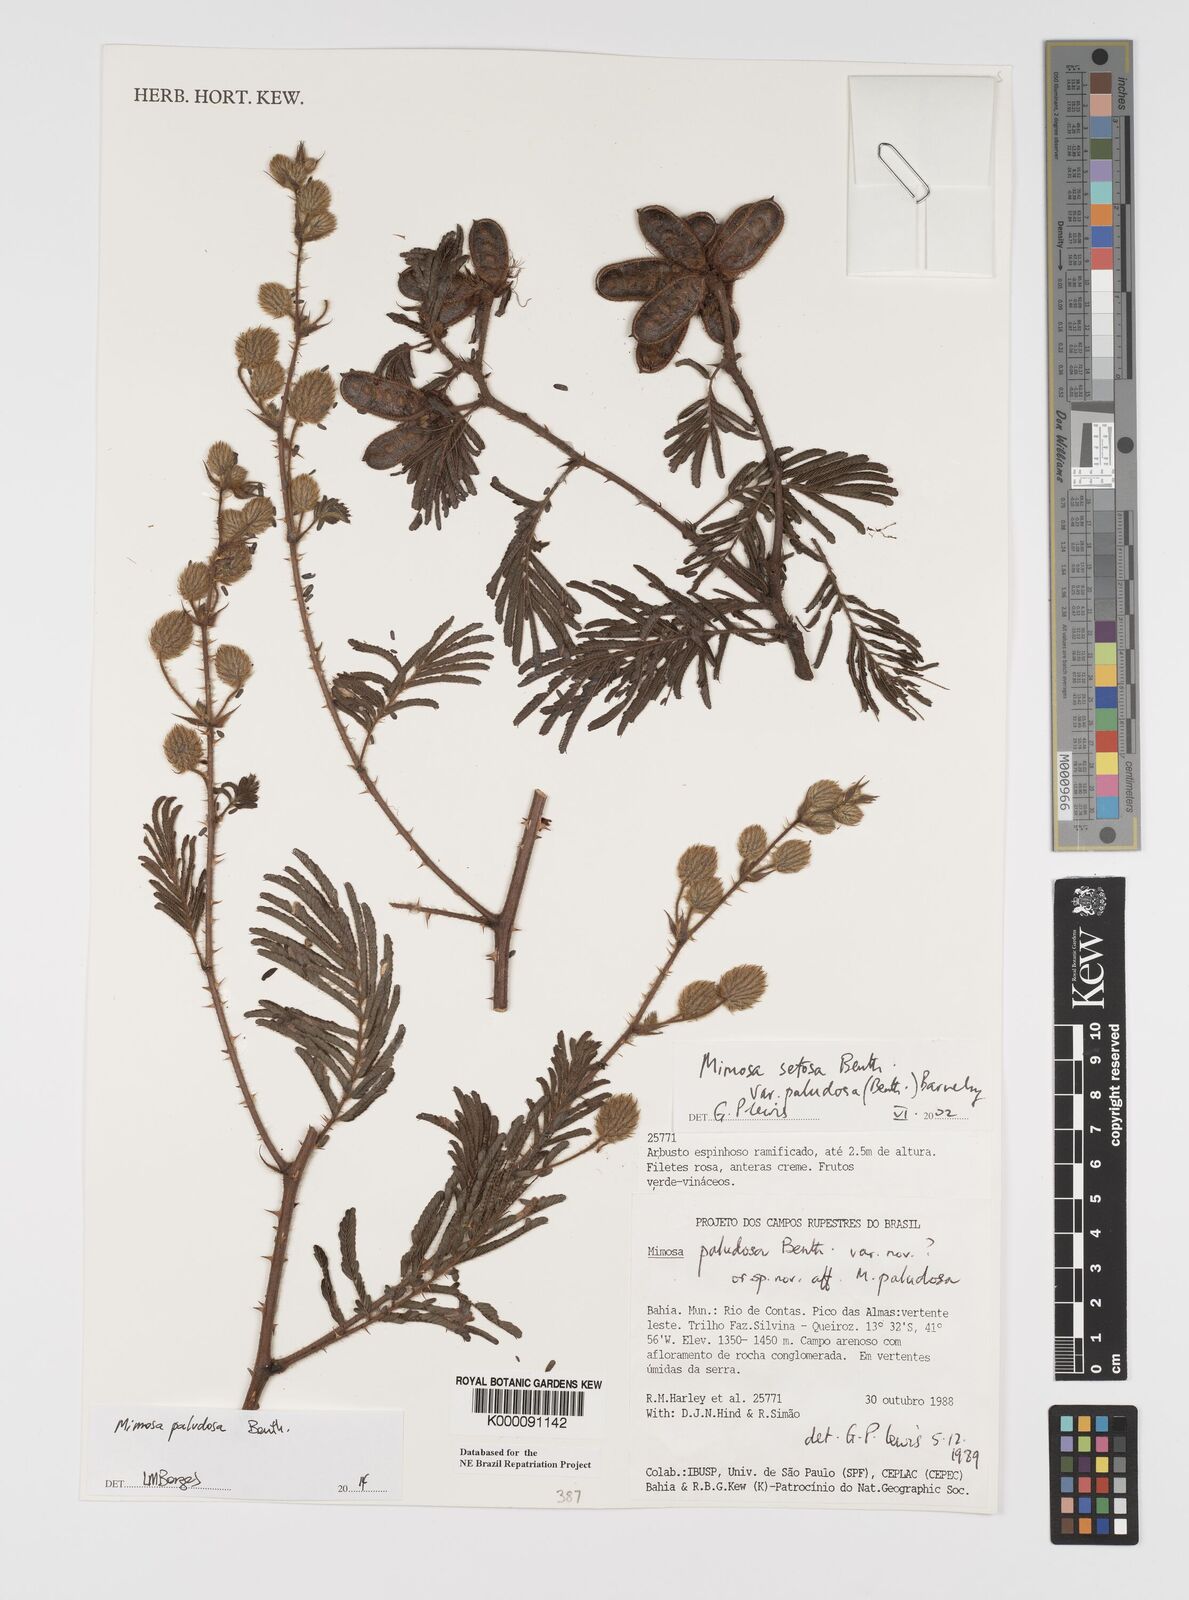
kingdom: Plantae
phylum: Tracheophyta
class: Magnoliopsida
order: Fabales
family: Fabaceae
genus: Mimosa
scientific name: Mimosa paludosa
